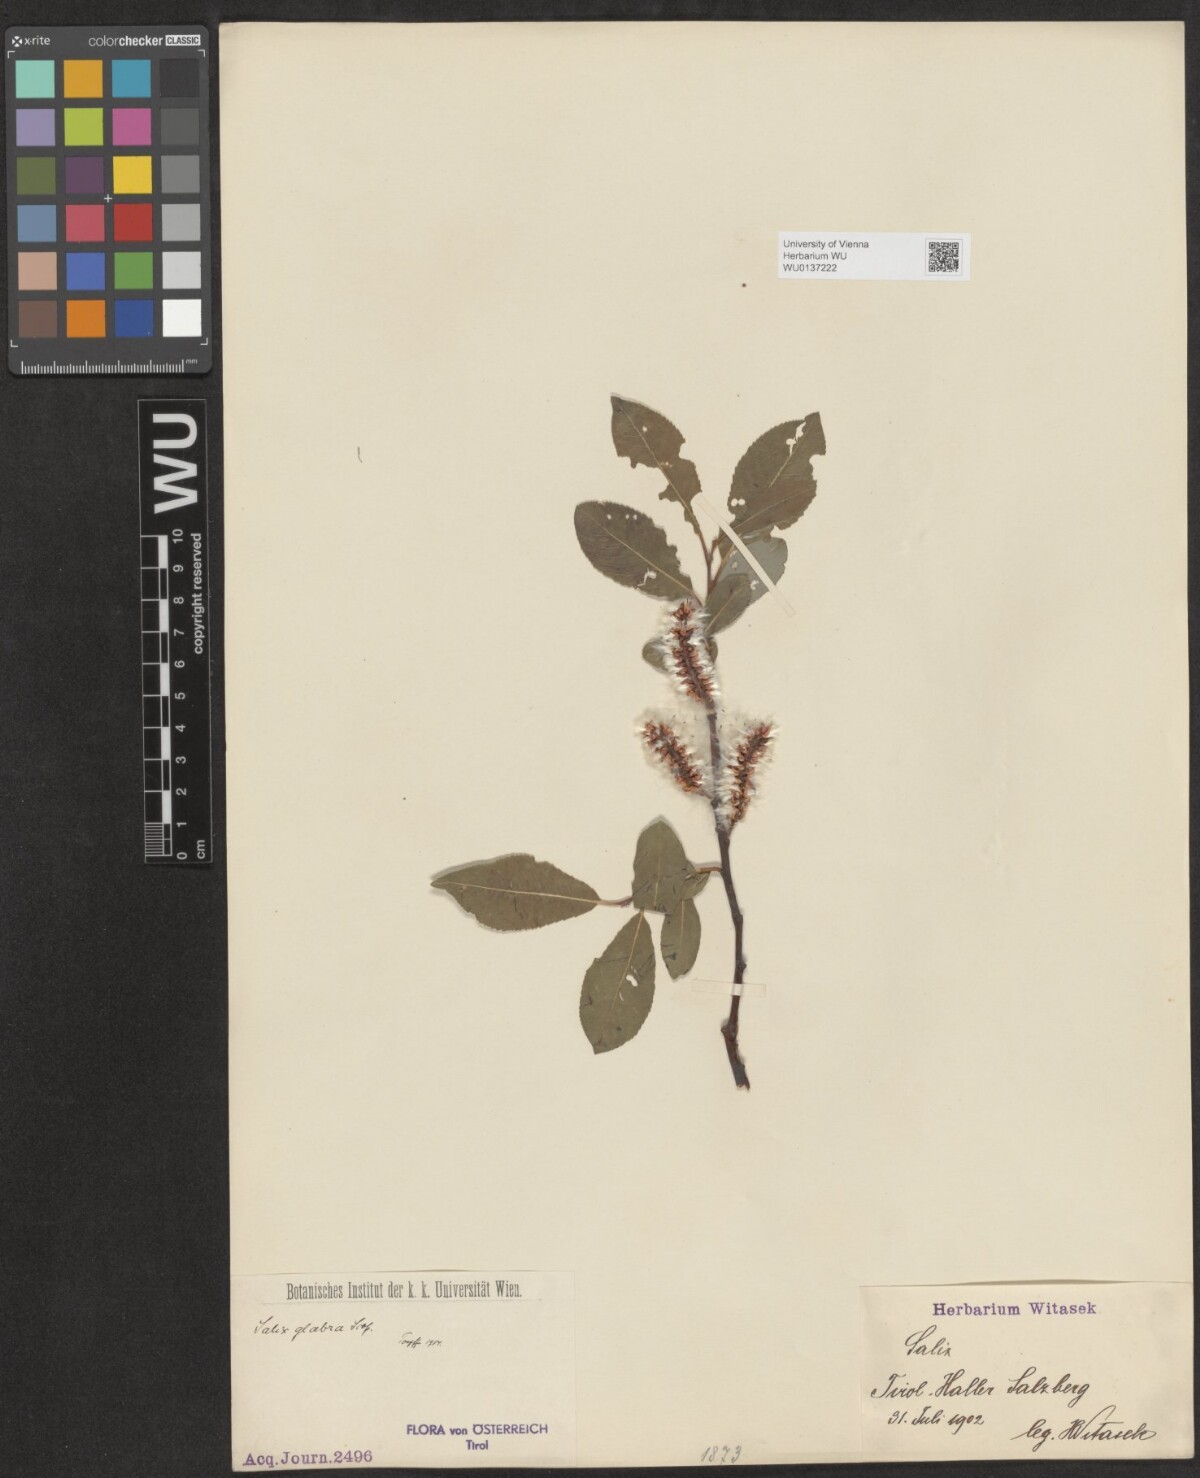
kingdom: Plantae
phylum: Tracheophyta
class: Magnoliopsida
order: Malpighiales
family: Salicaceae
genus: Salix
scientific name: Salix glabra
